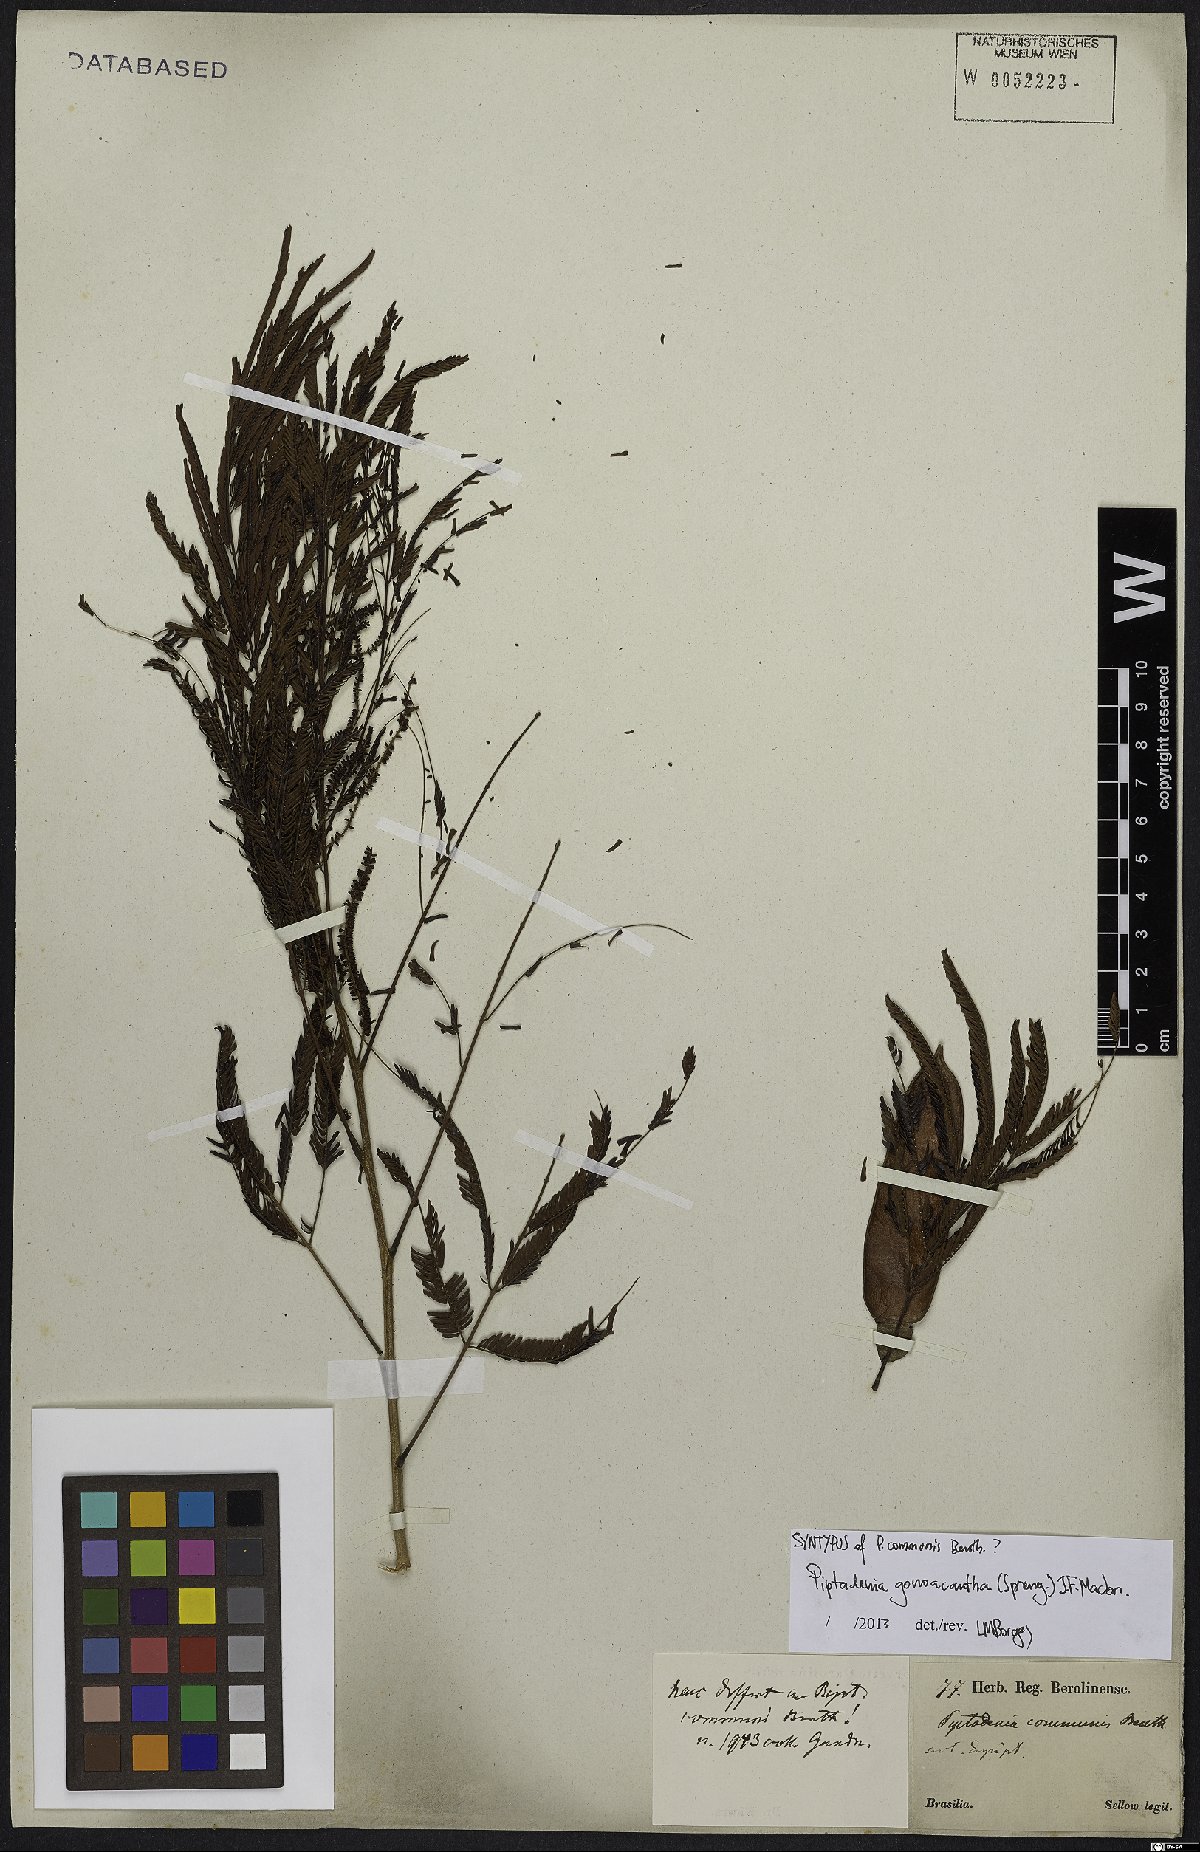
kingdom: Plantae
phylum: Tracheophyta
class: Magnoliopsida
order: Fabales
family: Fabaceae
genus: Piptadenia
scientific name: Piptadenia gonoacantha
